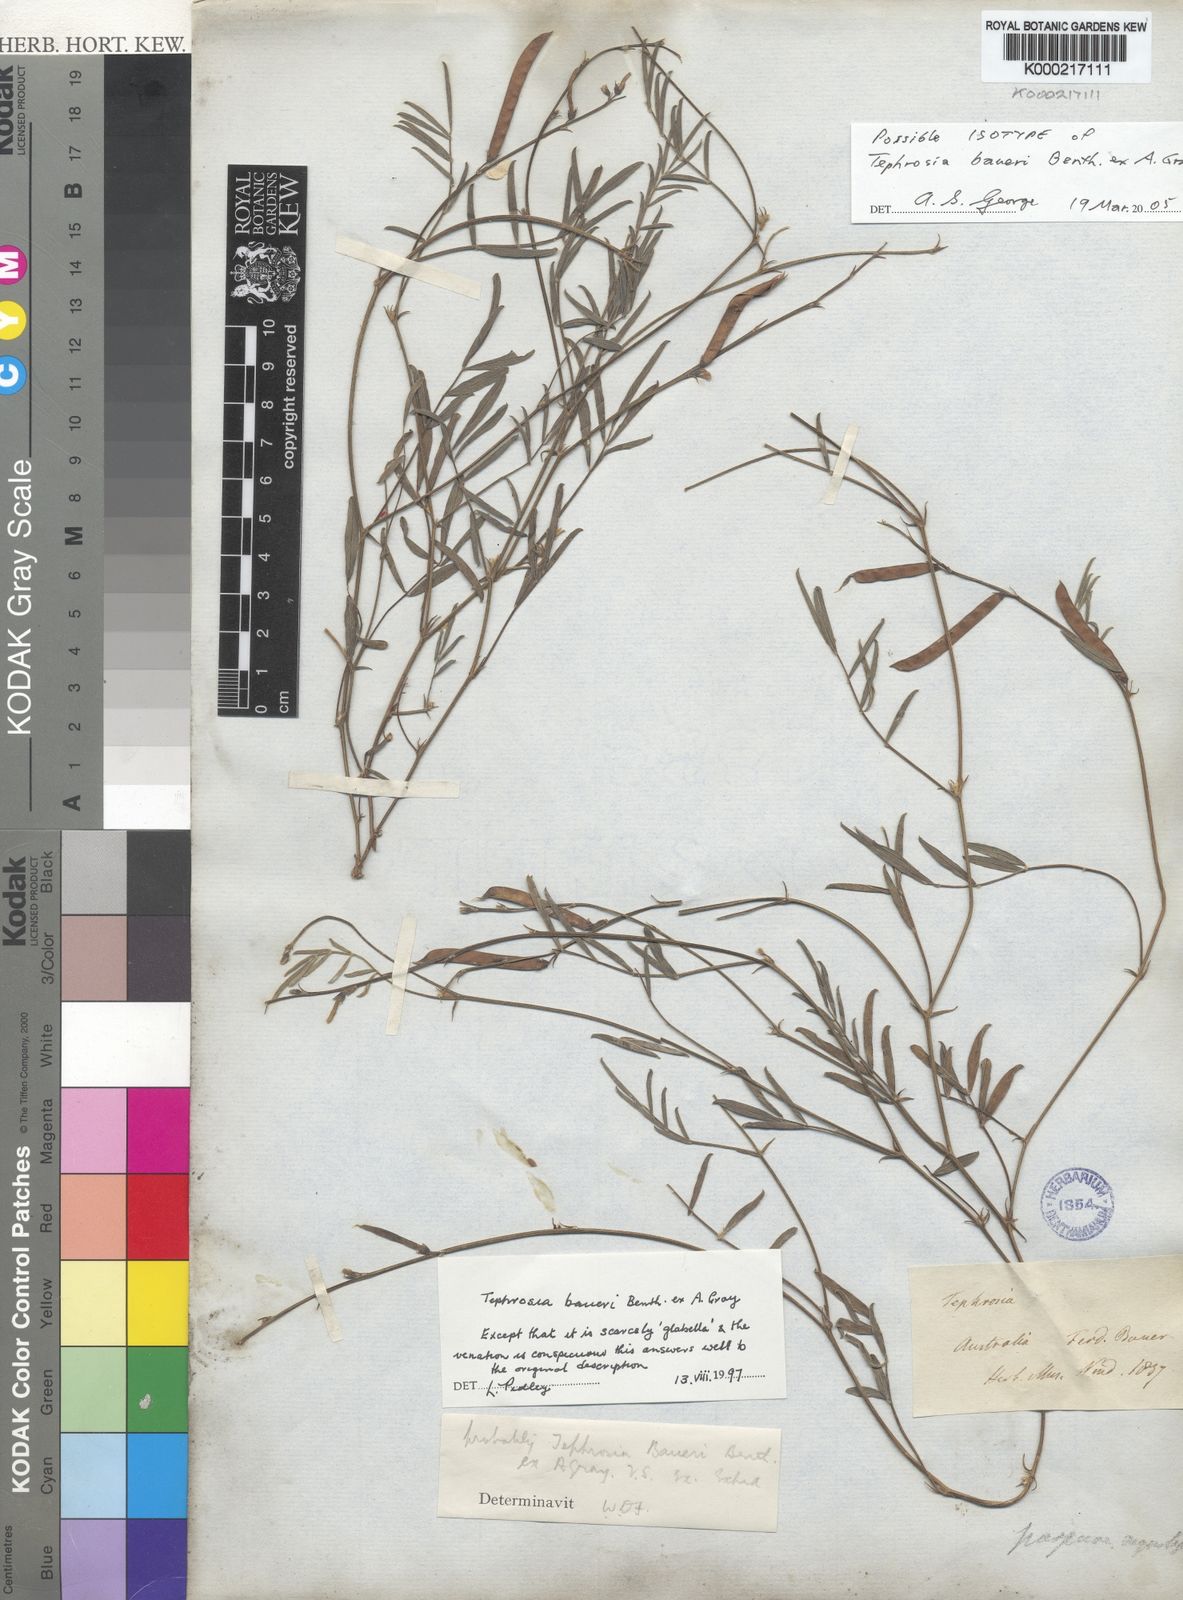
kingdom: Plantae
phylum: Tracheophyta
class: Magnoliopsida
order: Fabales
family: Fabaceae
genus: Tephrosia
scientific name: Tephrosia baueri
